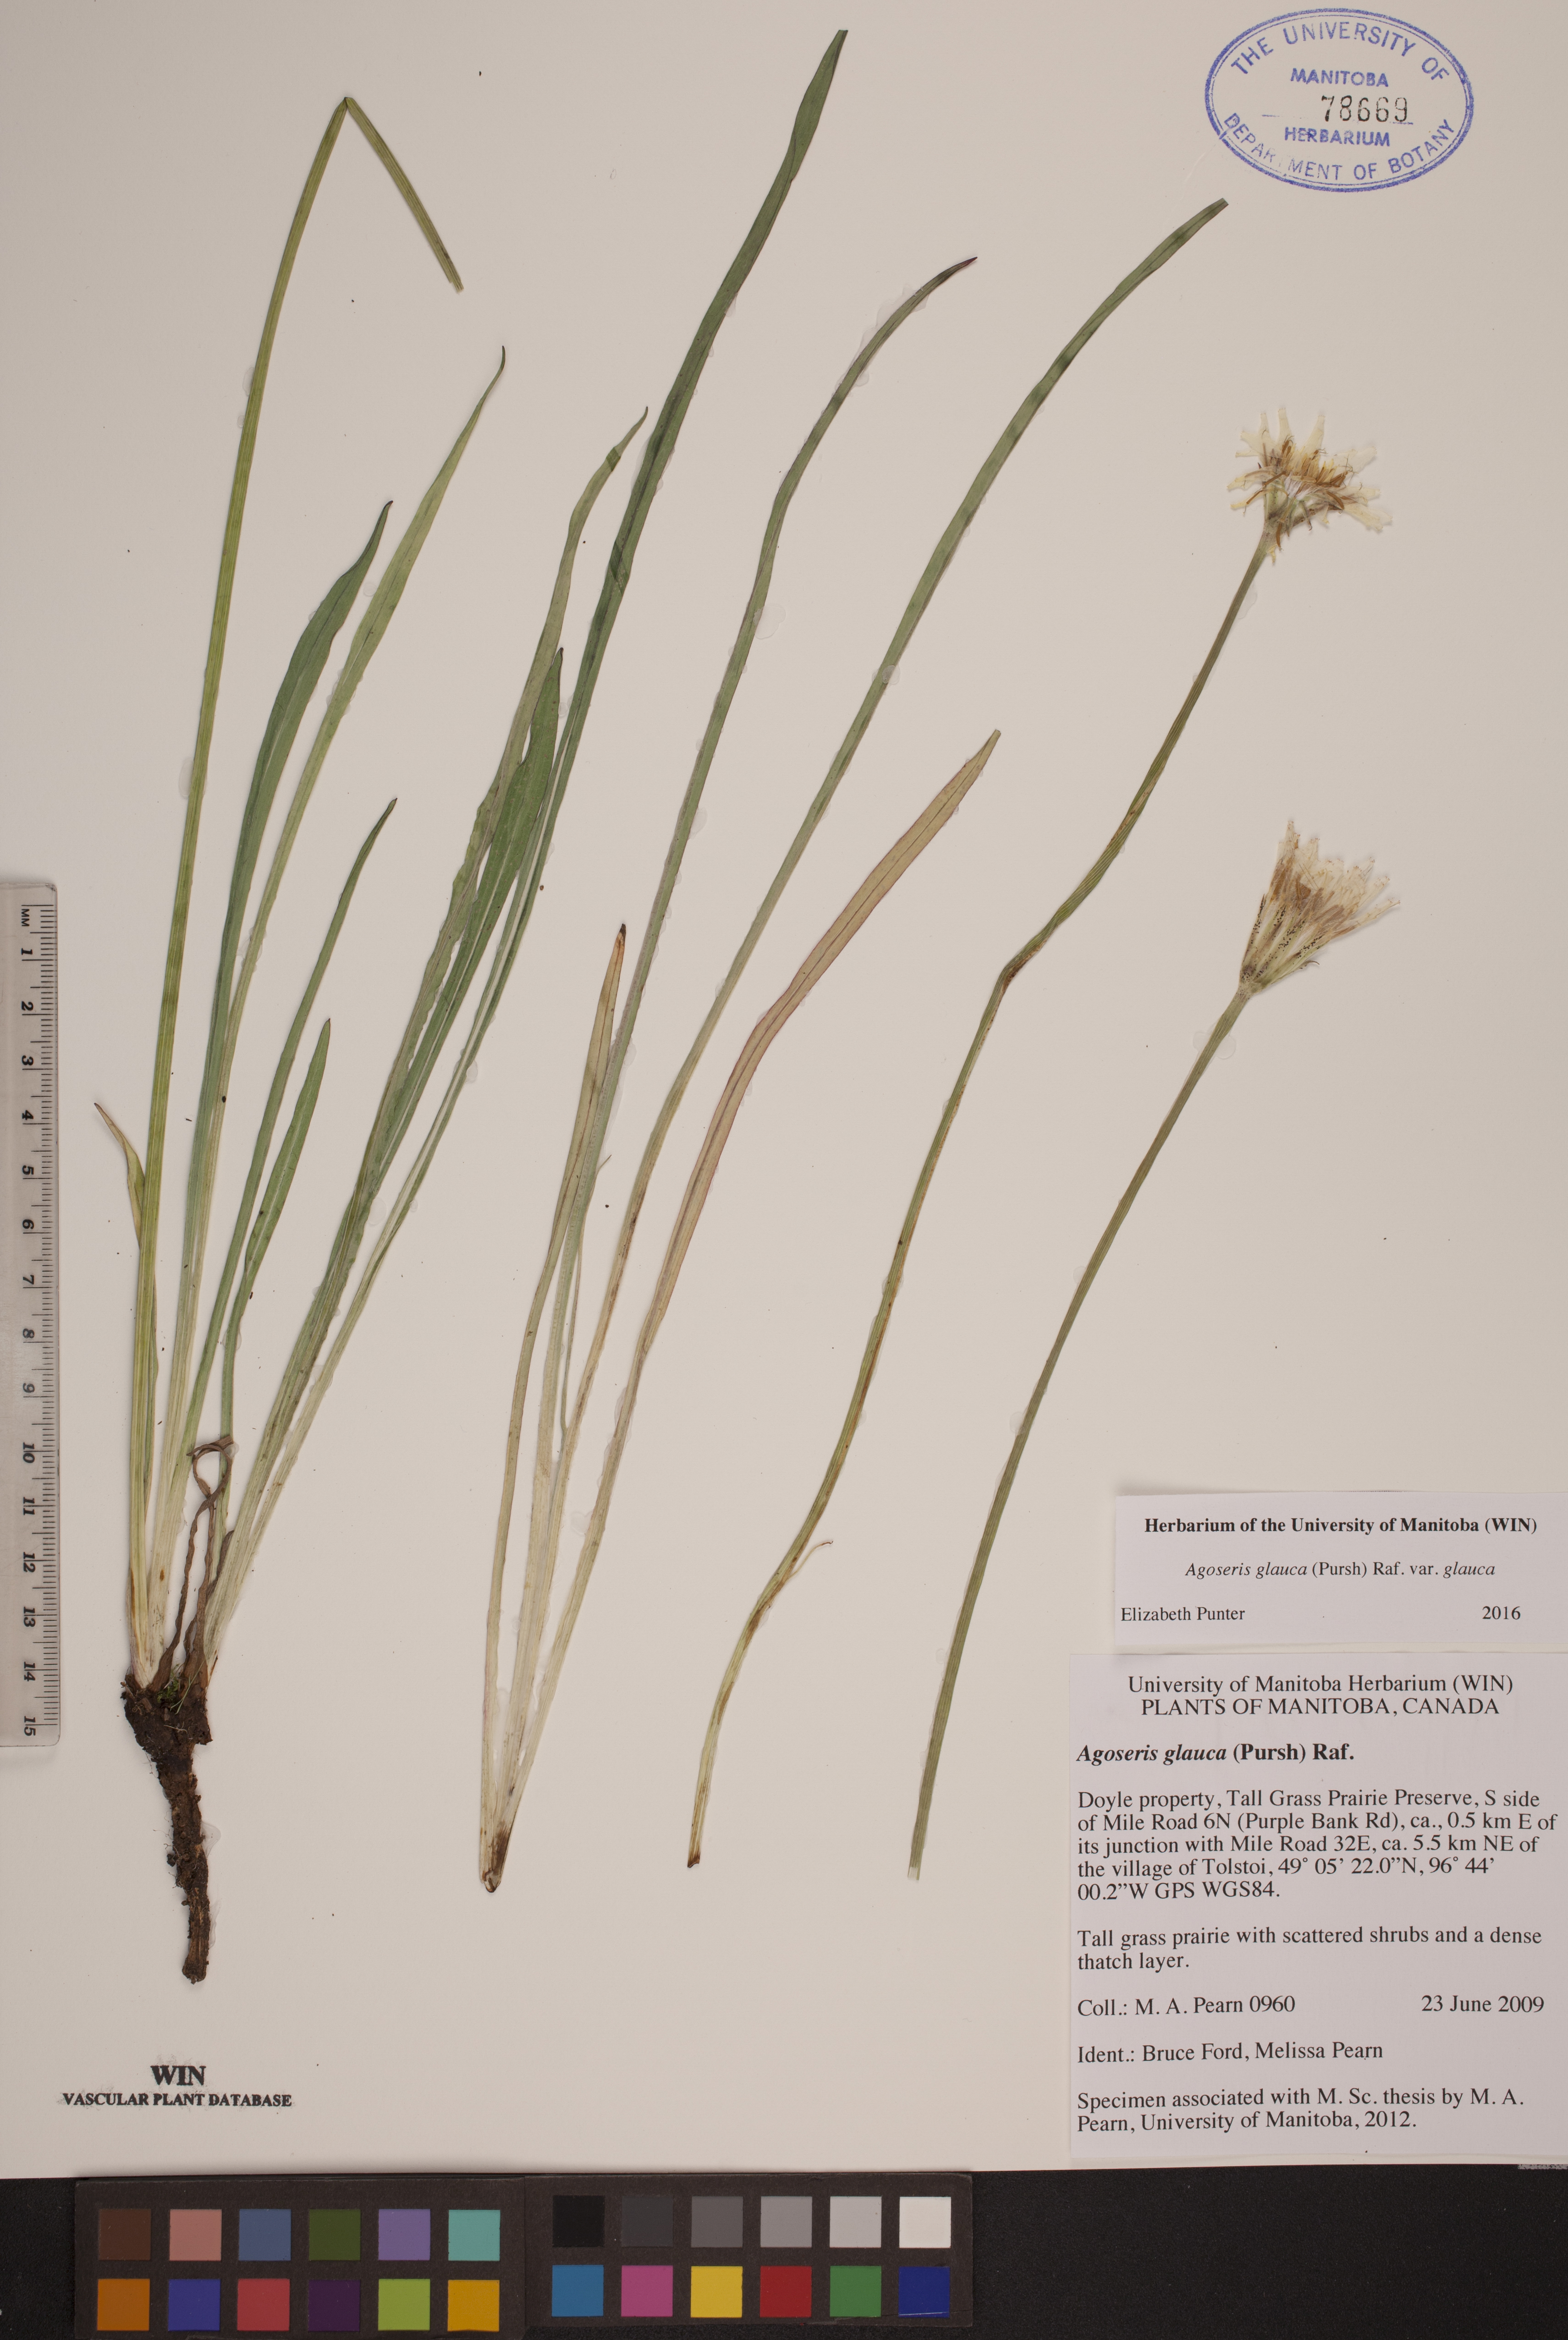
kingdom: Plantae
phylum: Tracheophyta
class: Magnoliopsida
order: Asterales
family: Asteraceae
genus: Agoseris
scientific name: Agoseris glauca
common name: Prairie agoseris
